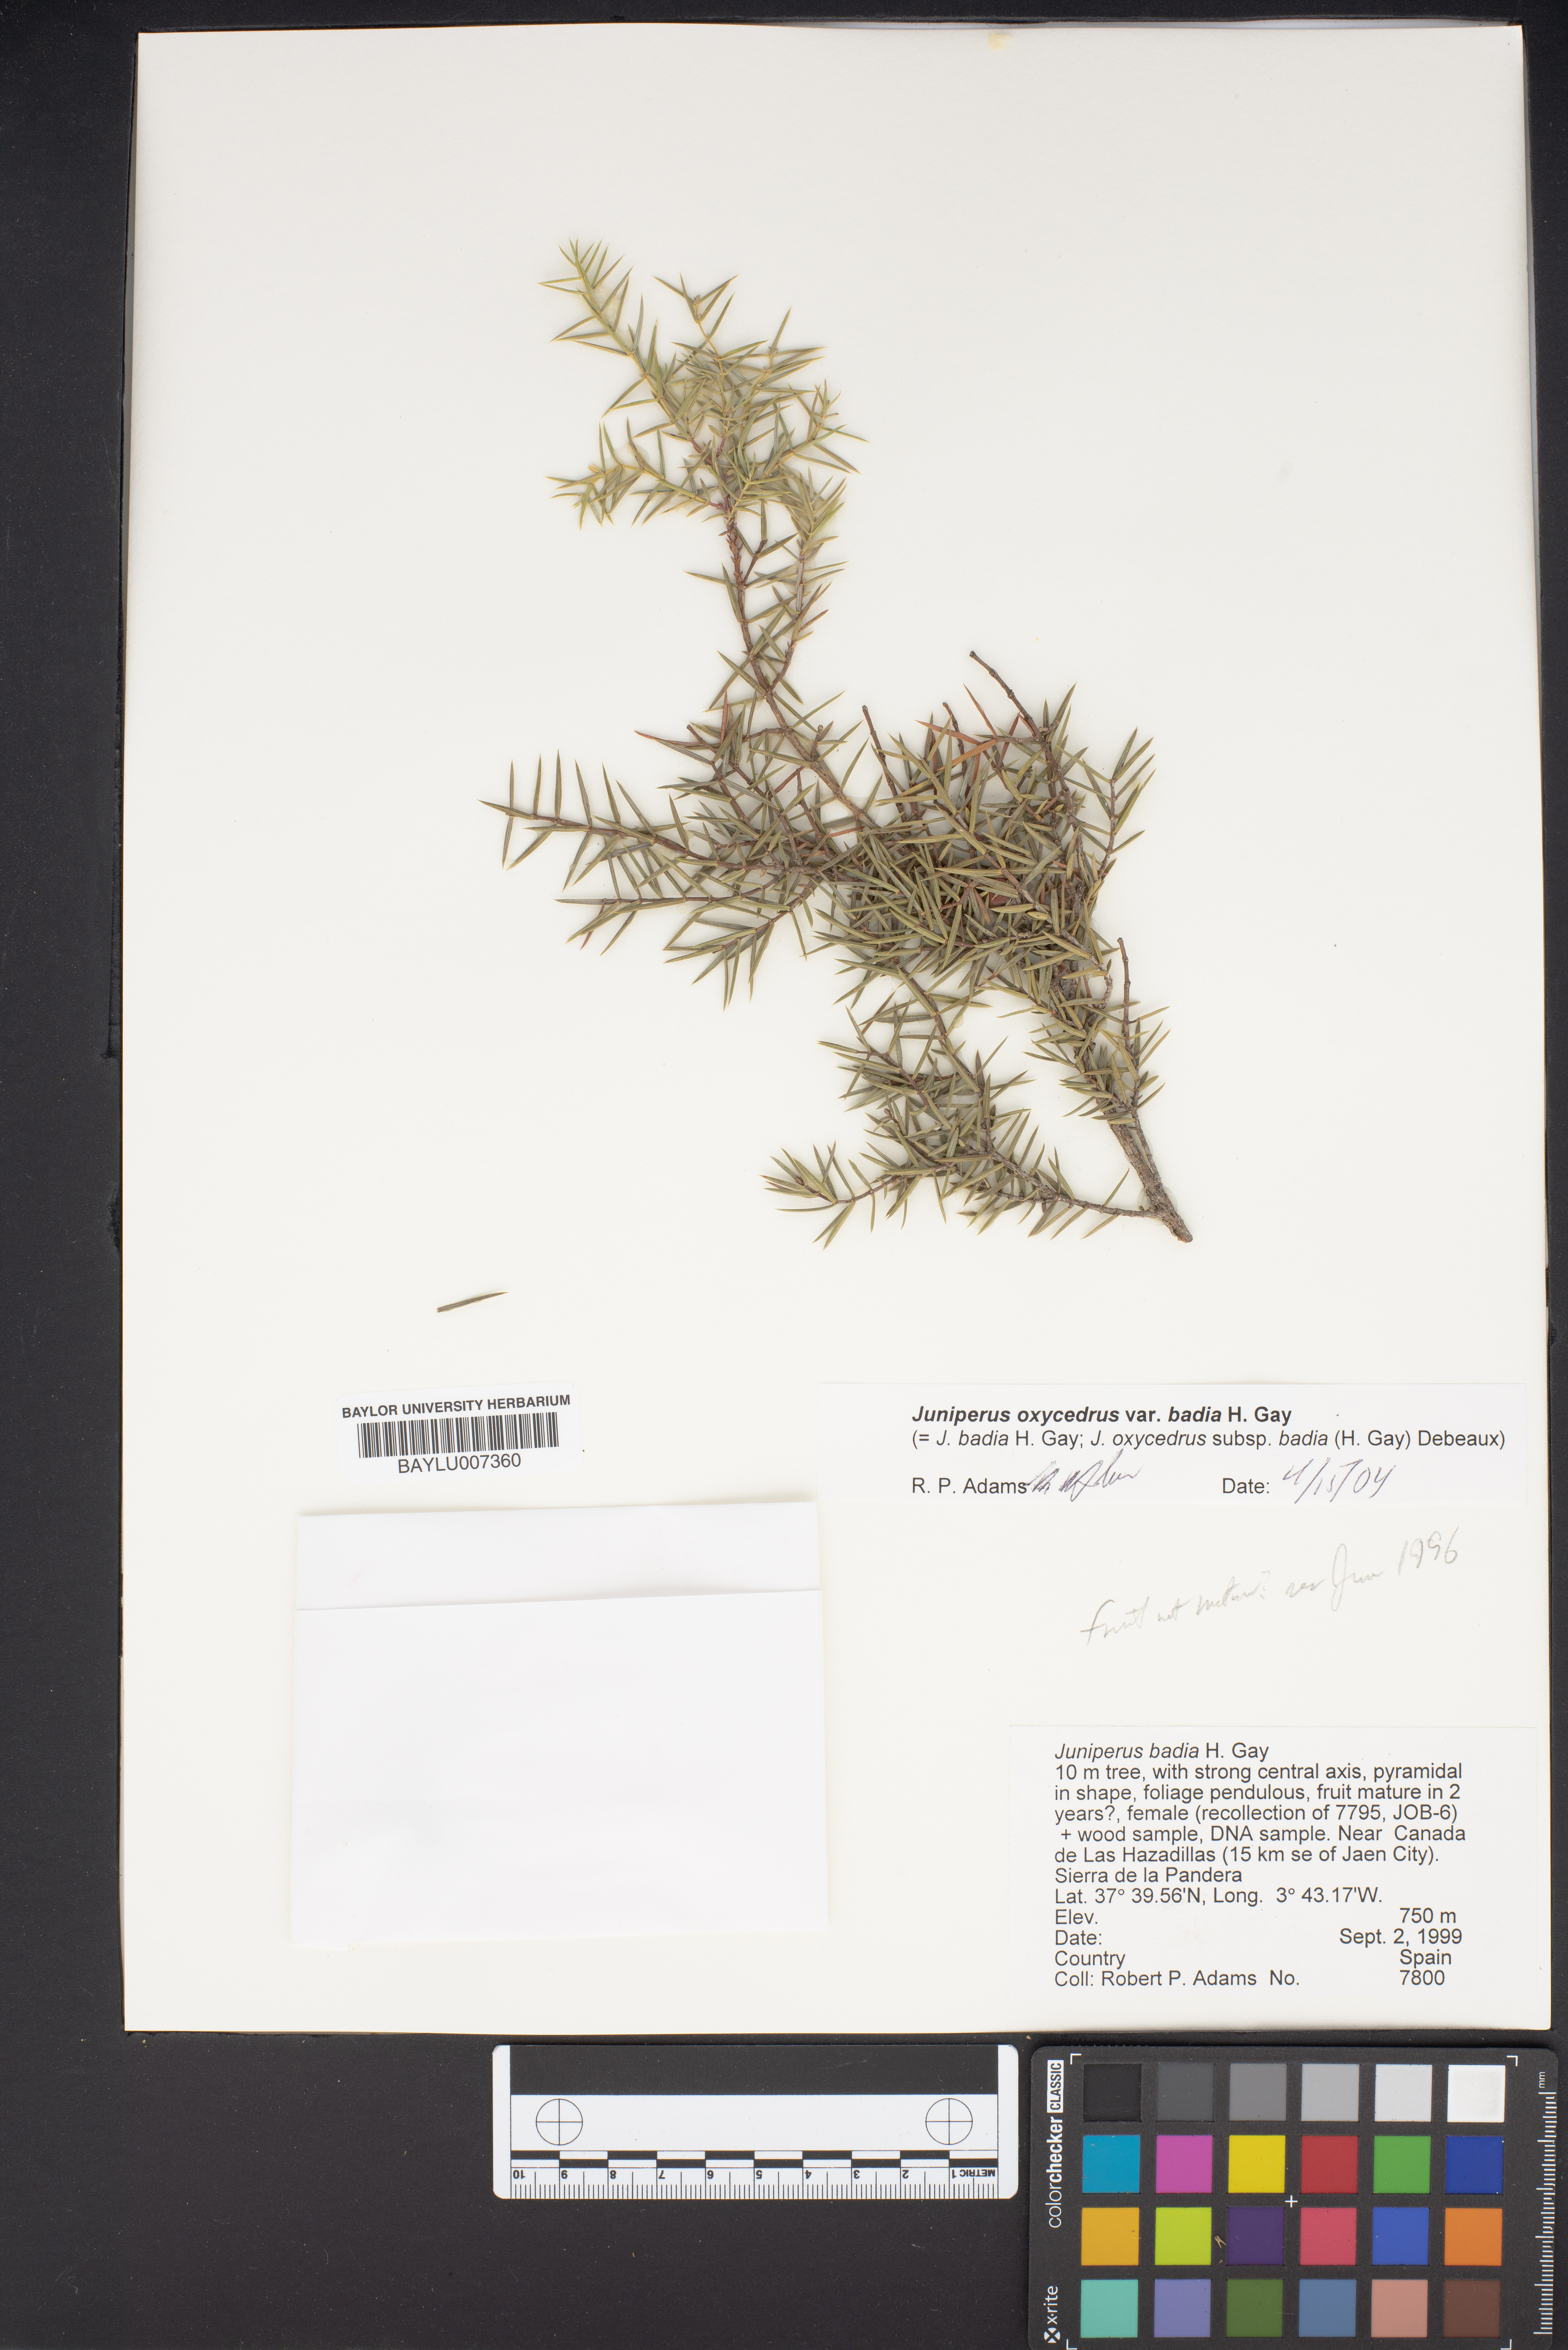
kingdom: Plantae
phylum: Tracheophyta
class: Pinopsida
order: Pinales
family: Cupressaceae
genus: Juniperus
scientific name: Juniperus oxycedrus
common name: Prickly juniper
